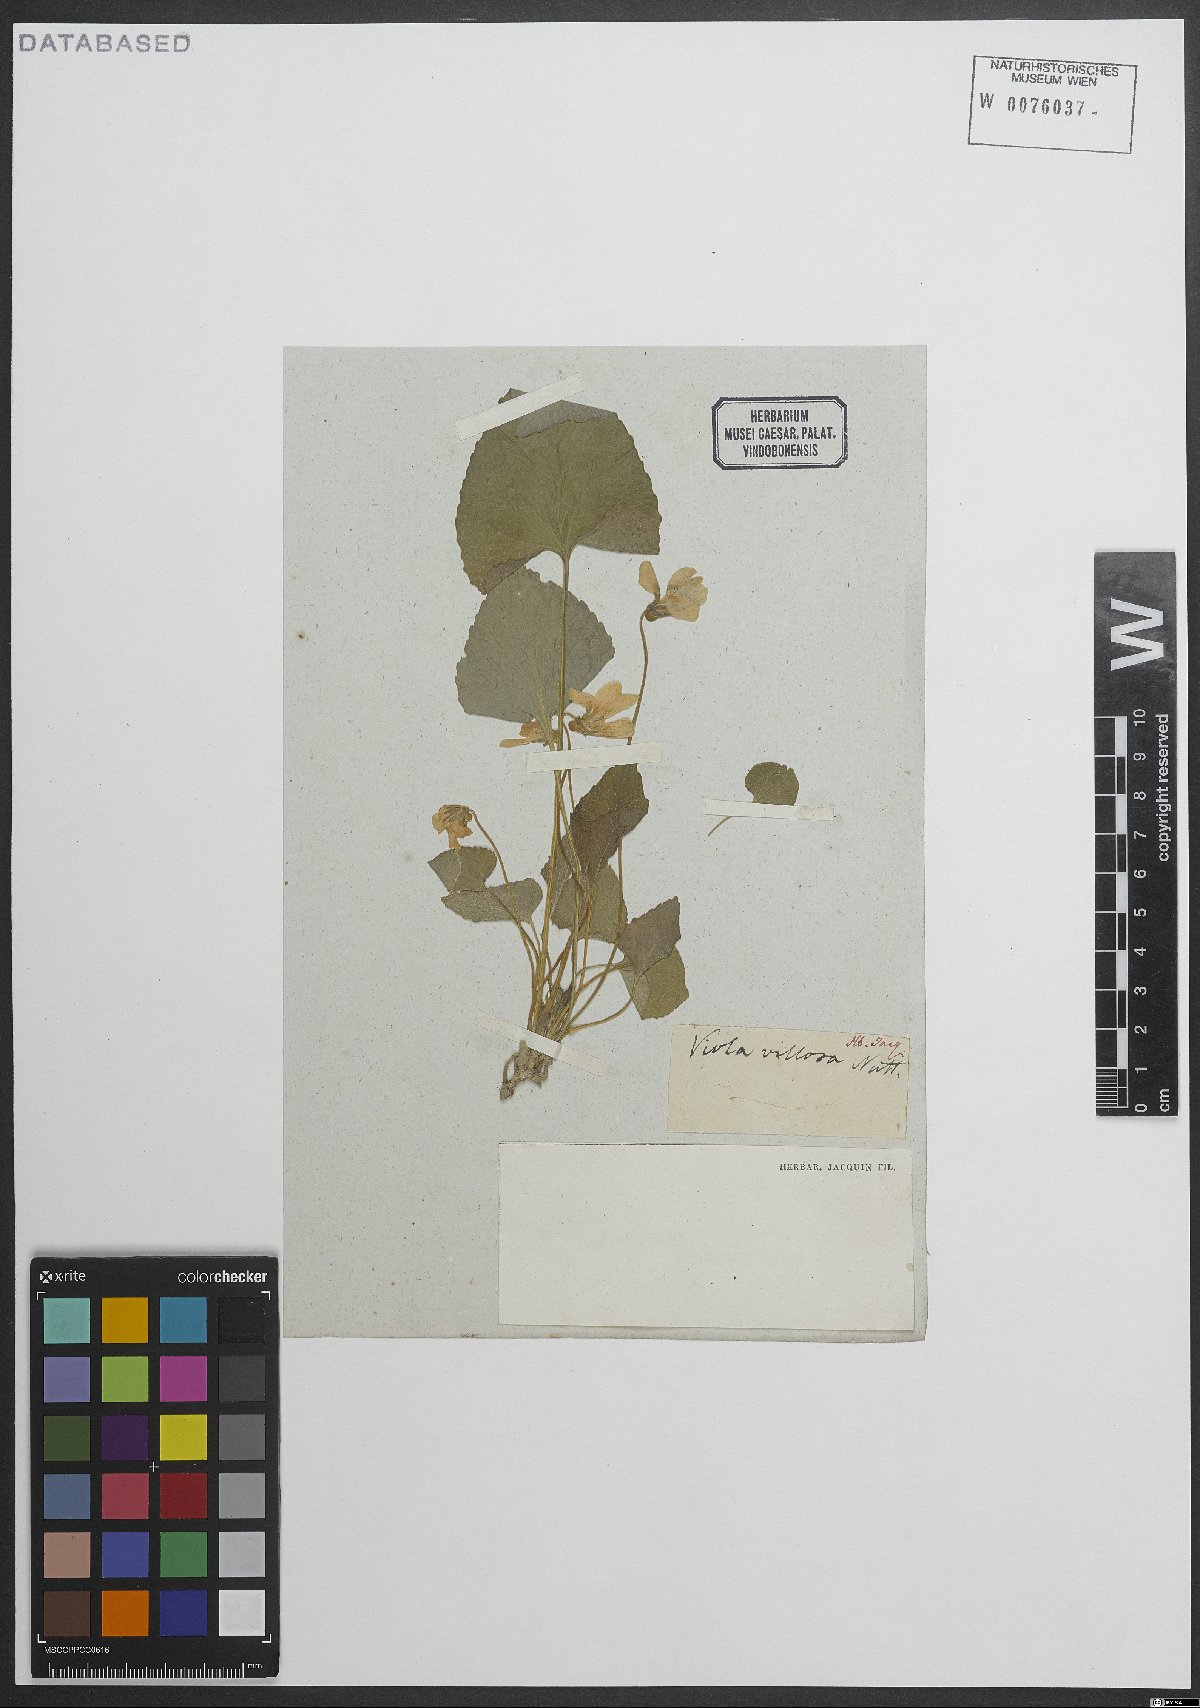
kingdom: Plantae
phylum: Tracheophyta
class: Magnoliopsida
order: Malpighiales
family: Violaceae
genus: Viola
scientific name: Viola villosa
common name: Carolina violet
